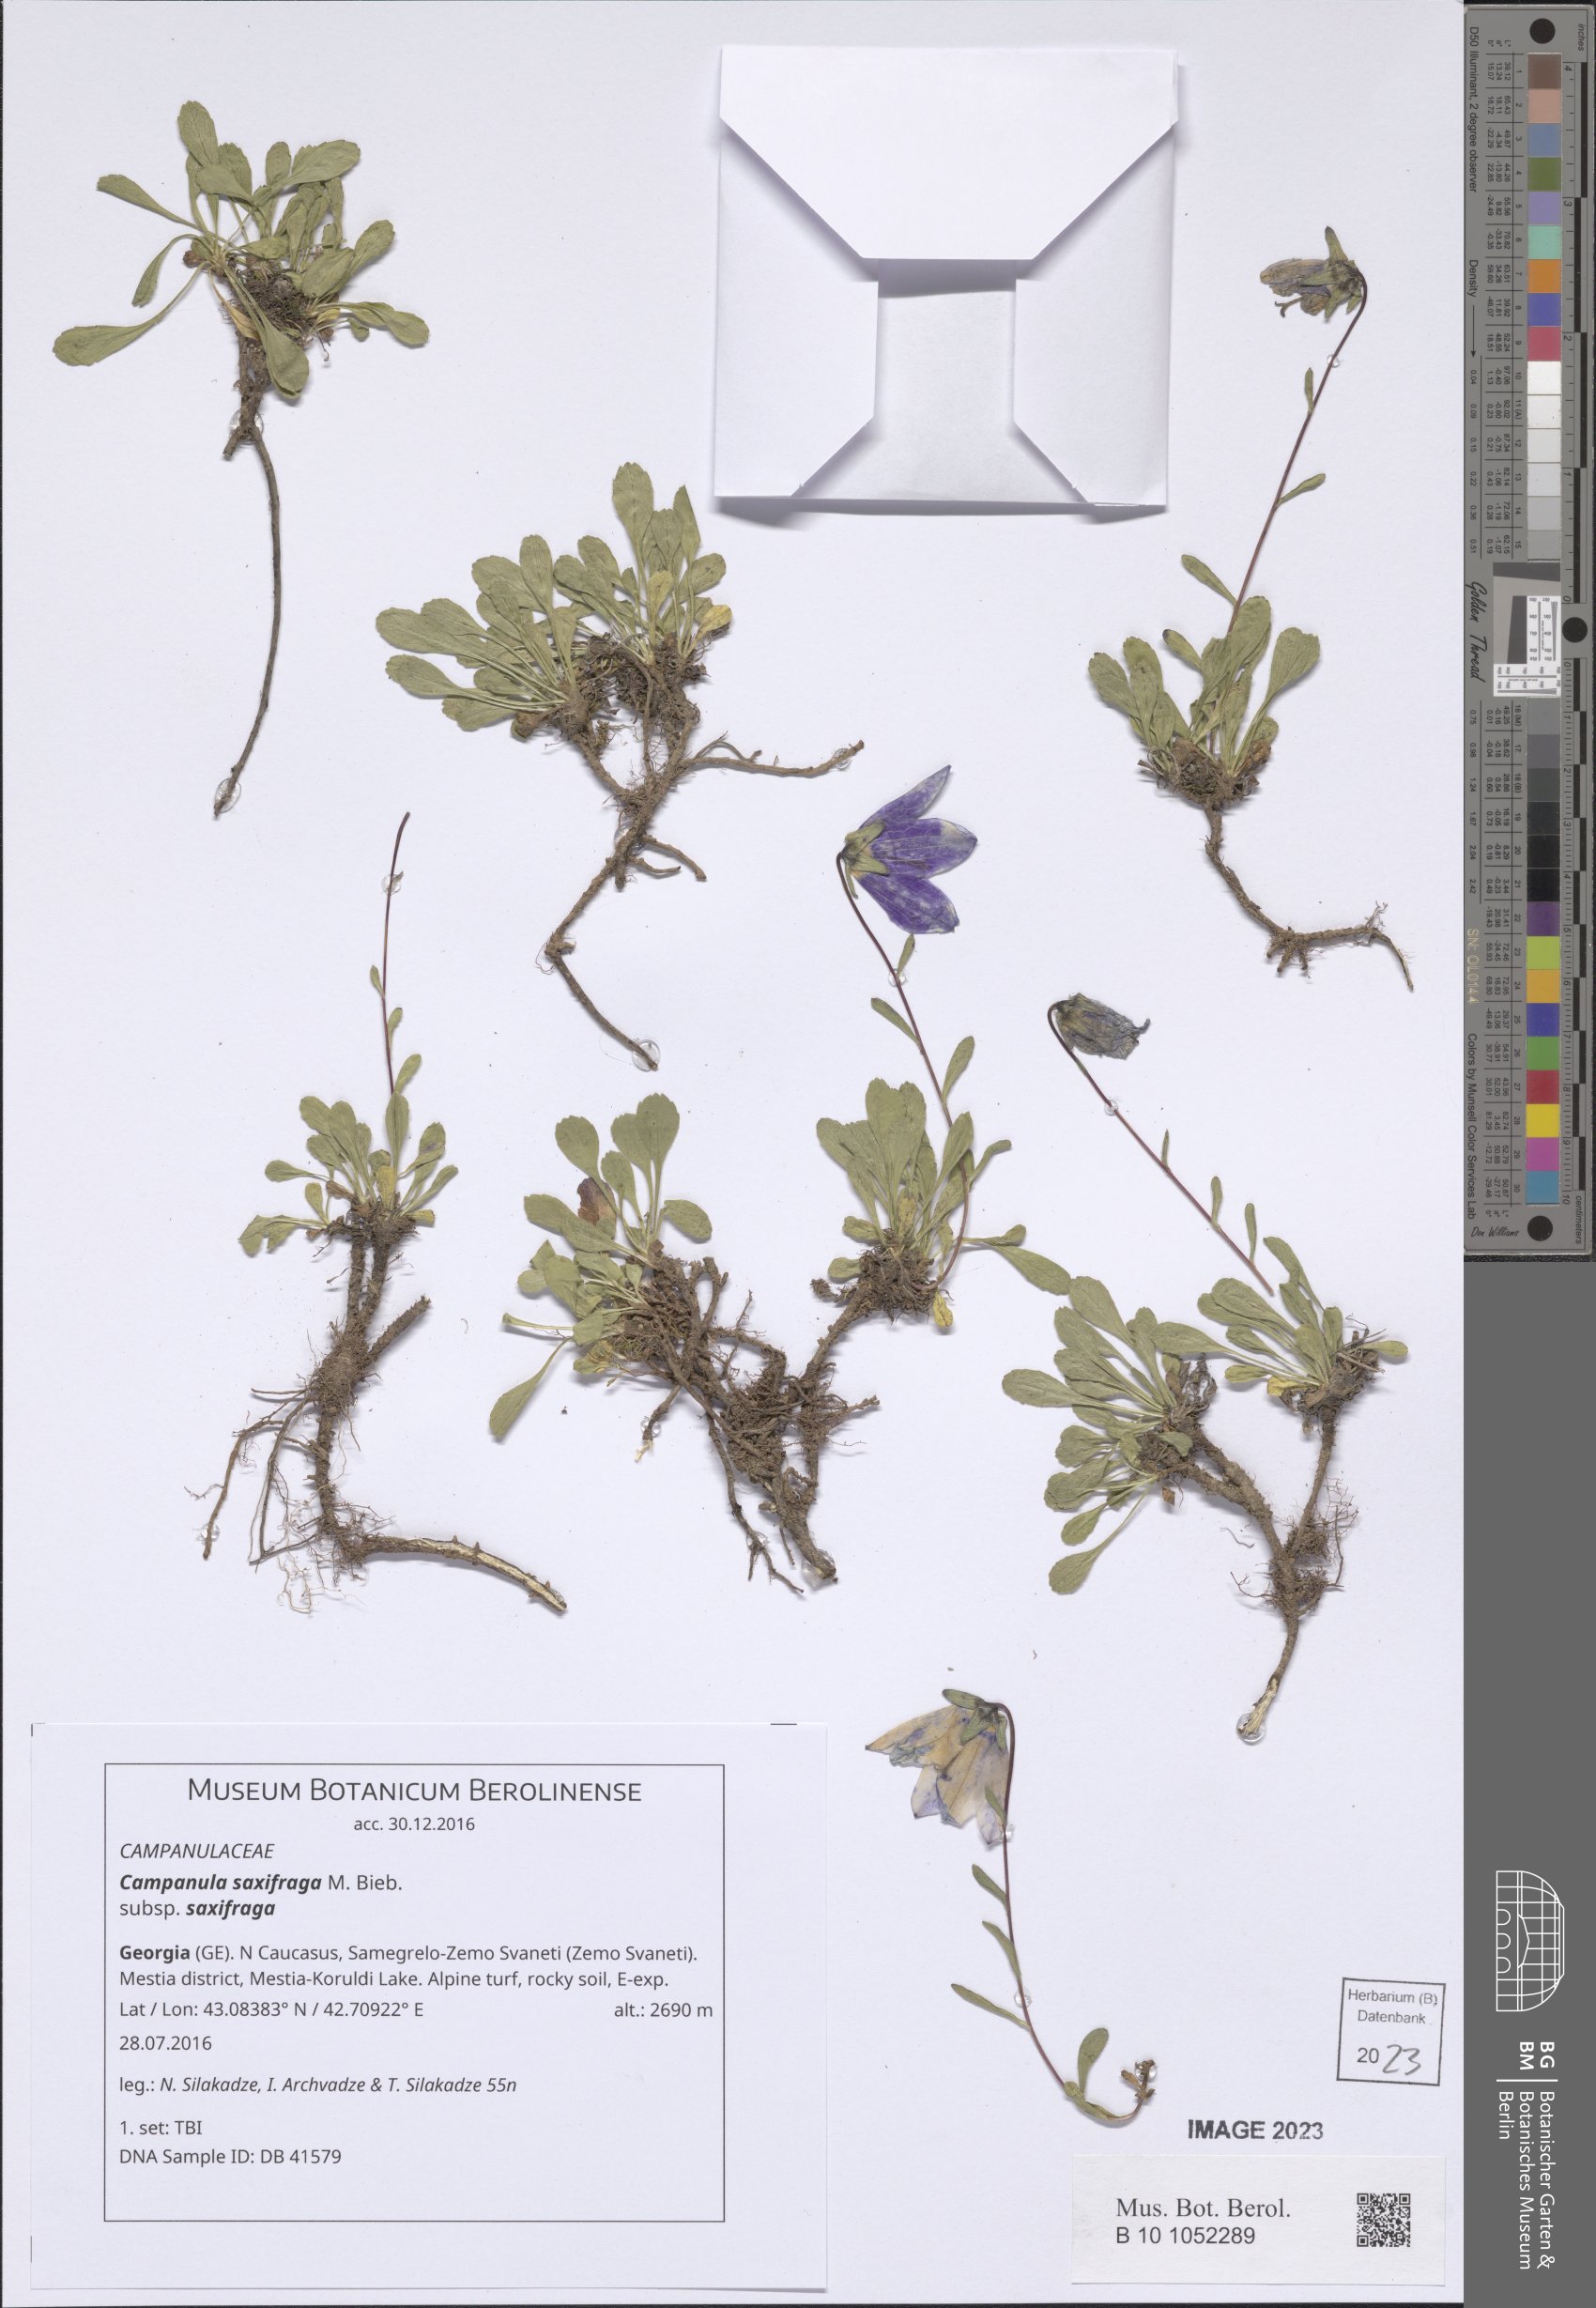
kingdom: Plantae
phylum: Tracheophyta
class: Magnoliopsida
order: Asterales
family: Campanulaceae
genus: Campanula
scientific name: Campanula saxifraga
